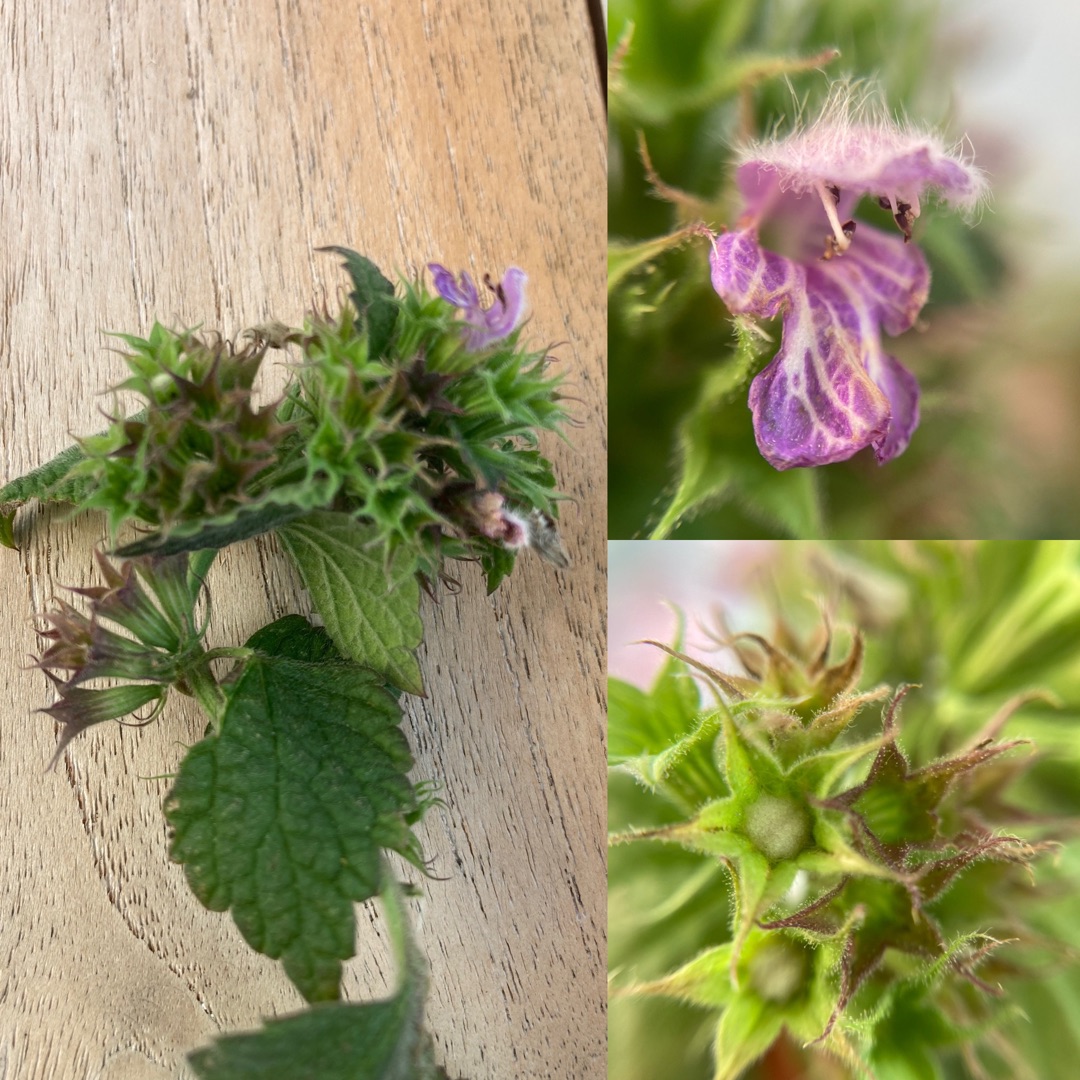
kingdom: Plantae
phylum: Tracheophyta
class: Magnoliopsida
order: Lamiales
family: Lamiaceae
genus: Ballota
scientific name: Ballota nigra
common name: Rød tandbæger
